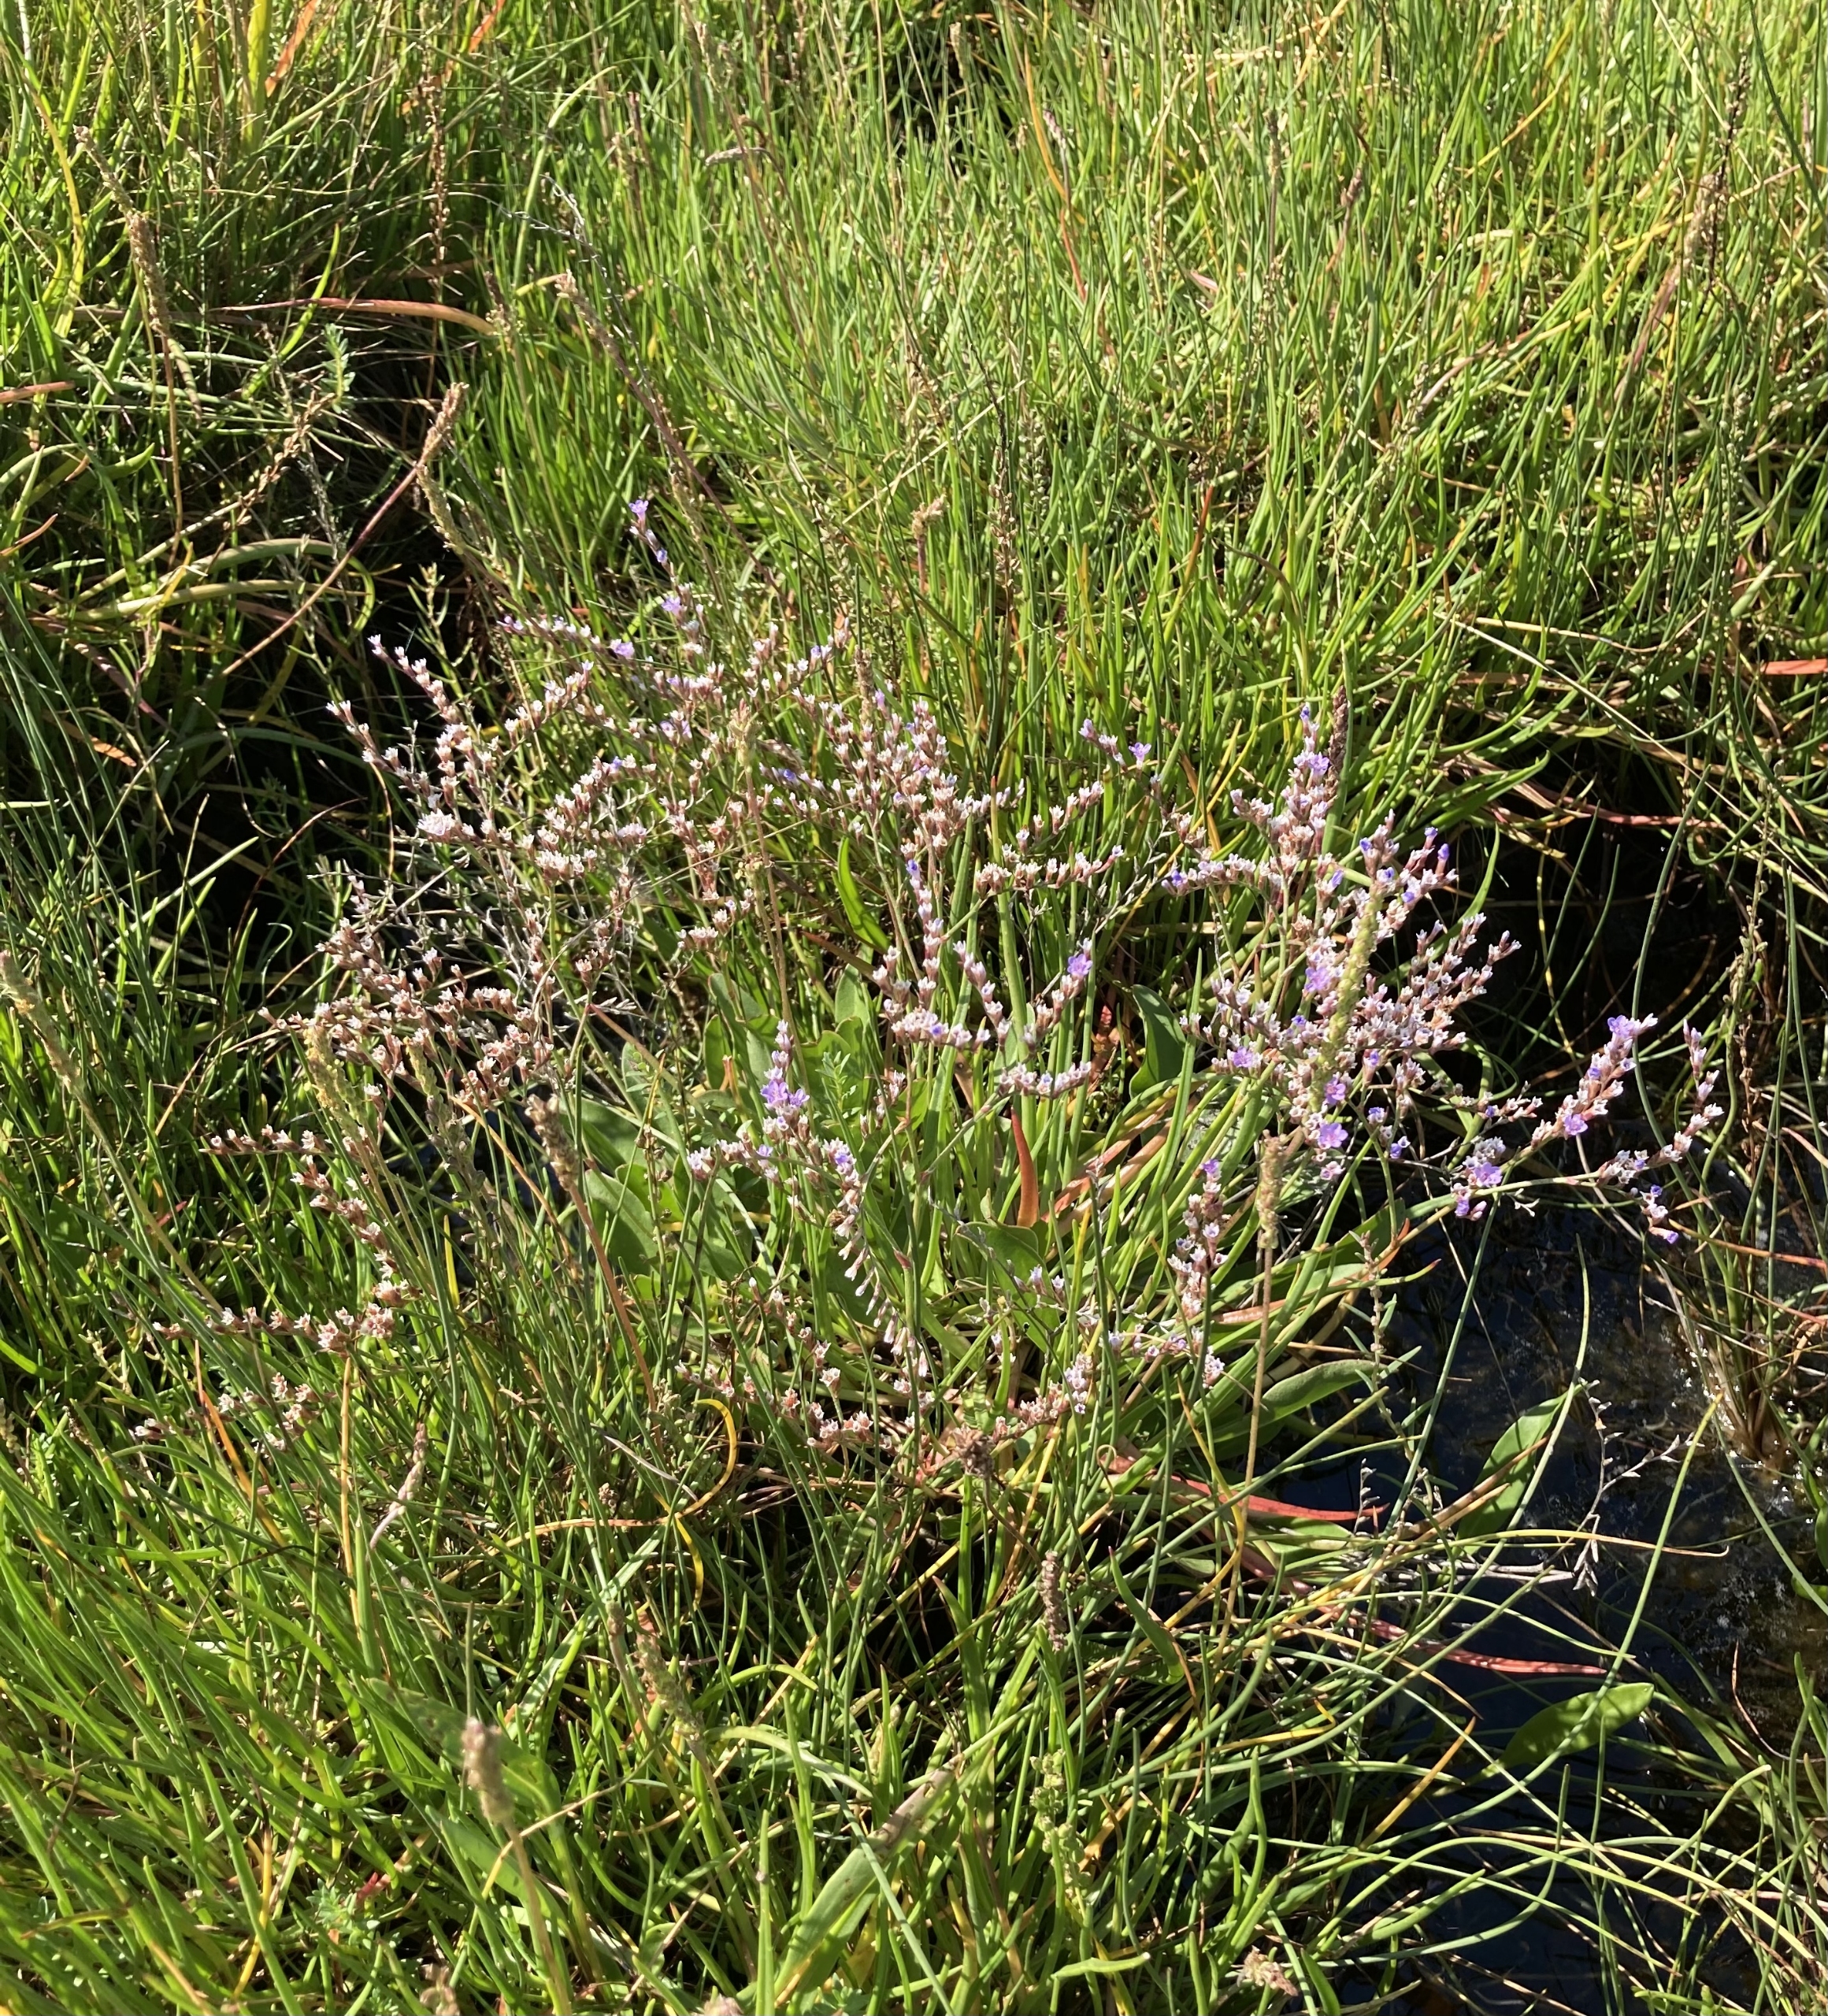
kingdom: Plantae
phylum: Tracheophyta
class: Magnoliopsida
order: Caryophyllales
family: Plumbaginaceae
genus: Limonium
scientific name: Limonium humile
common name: Lav hindebæger
